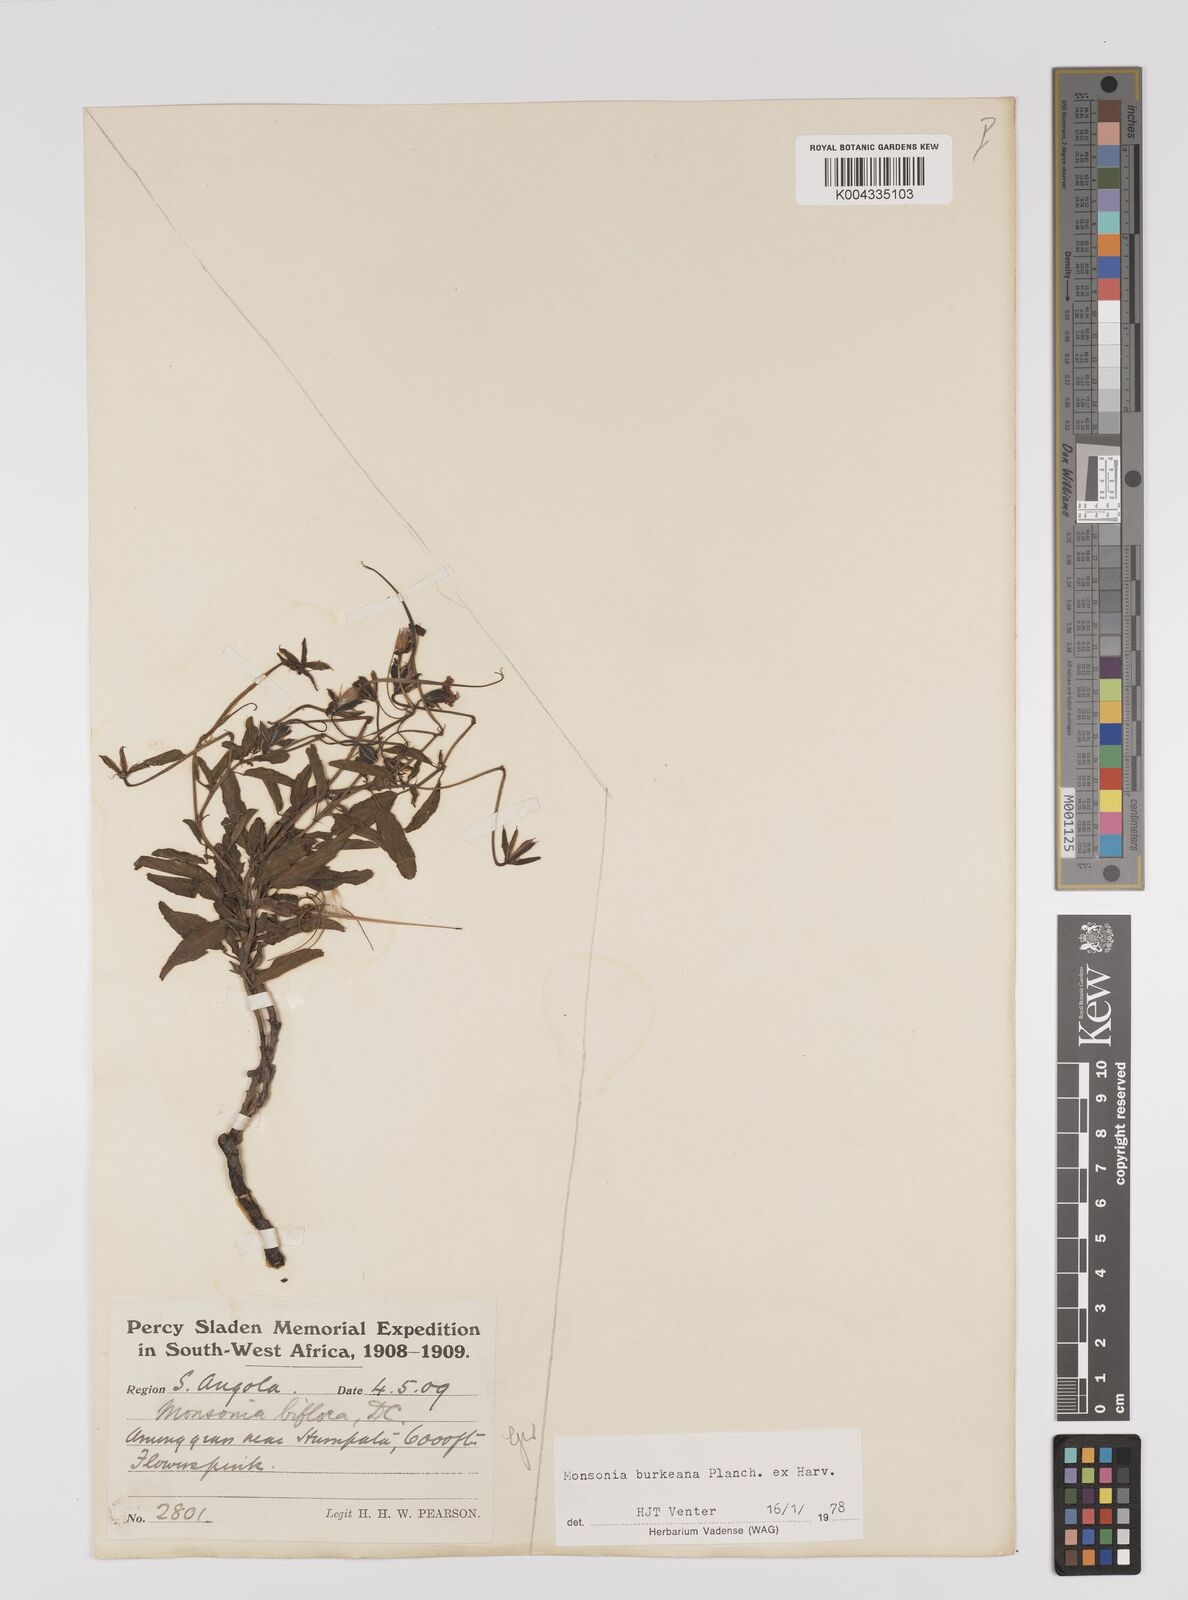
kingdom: Plantae
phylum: Tracheophyta
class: Magnoliopsida
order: Geraniales
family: Geraniaceae
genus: Monsonia
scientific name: Monsonia biflora
